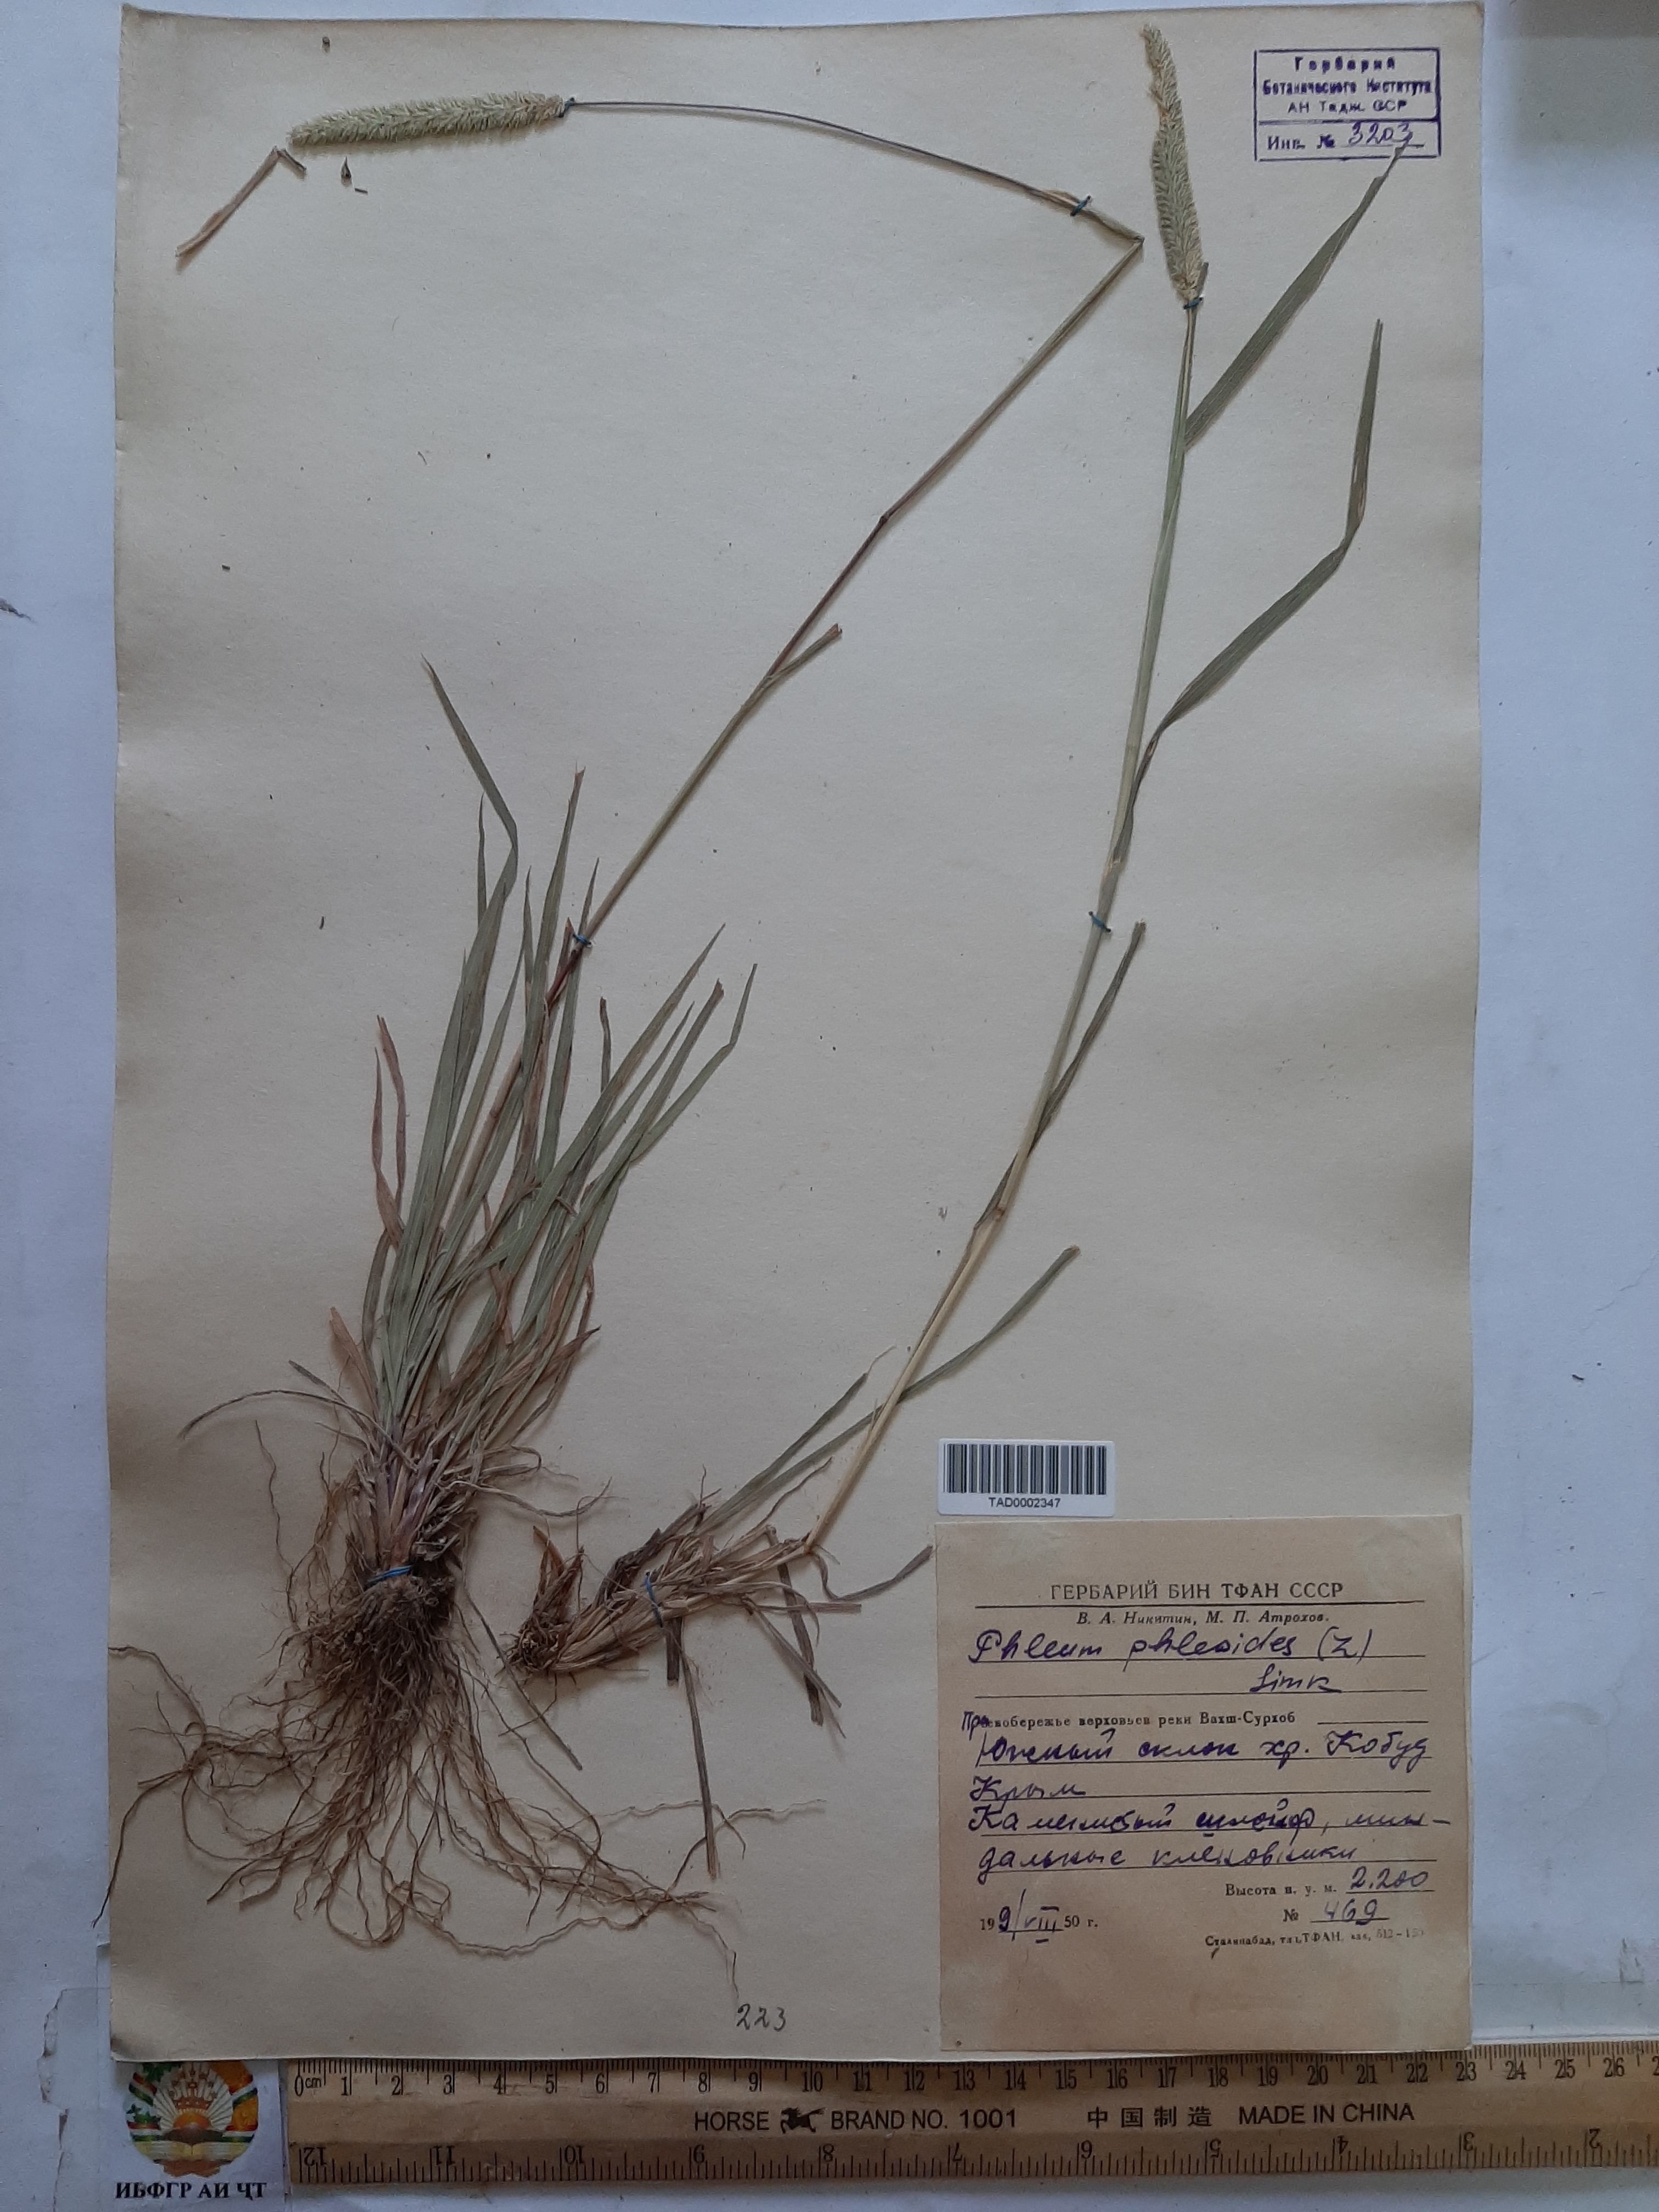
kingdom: Plantae
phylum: Tracheophyta
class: Liliopsida
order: Poales
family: Poaceae
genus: Phleum
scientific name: Phleum phleoides
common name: Purple-stem cat's-tail
